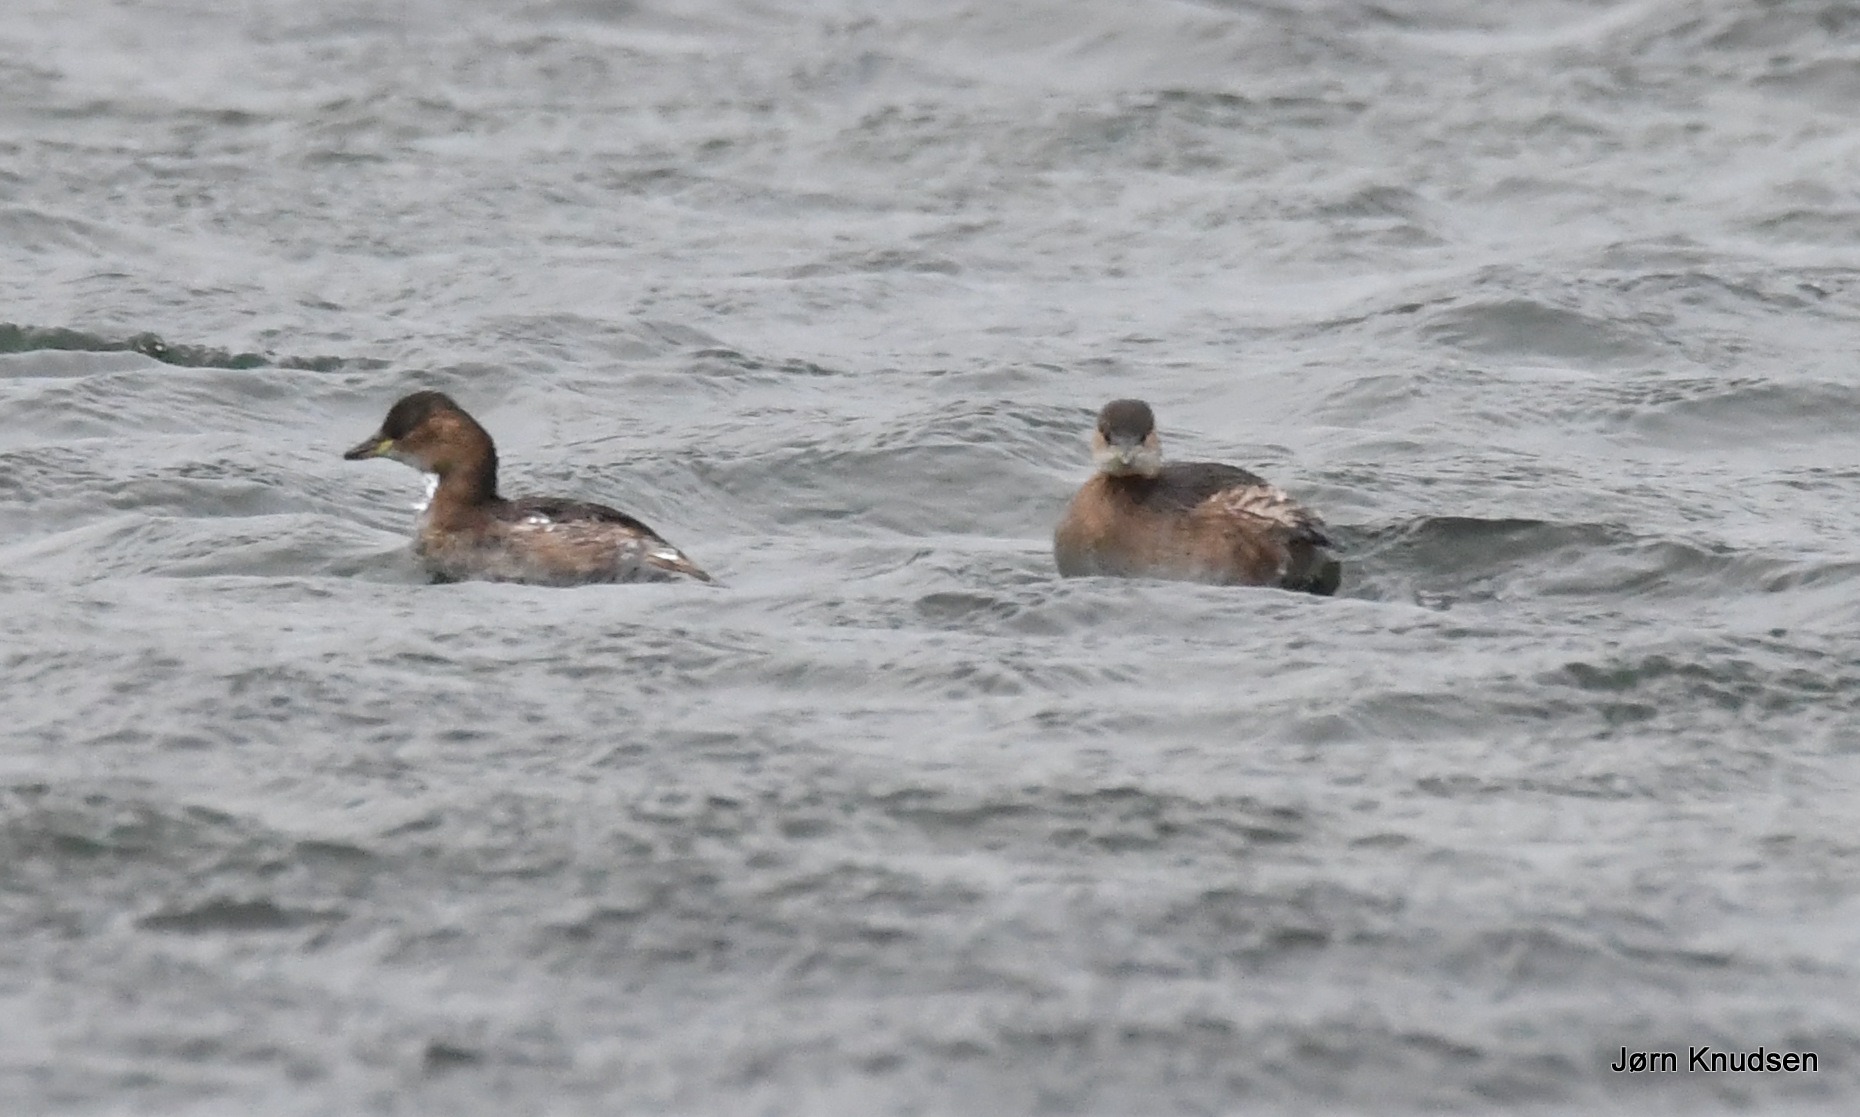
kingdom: Animalia
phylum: Chordata
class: Aves
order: Podicipediformes
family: Podicipedidae
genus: Tachybaptus
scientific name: Tachybaptus ruficollis
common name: Lille lappedykker
